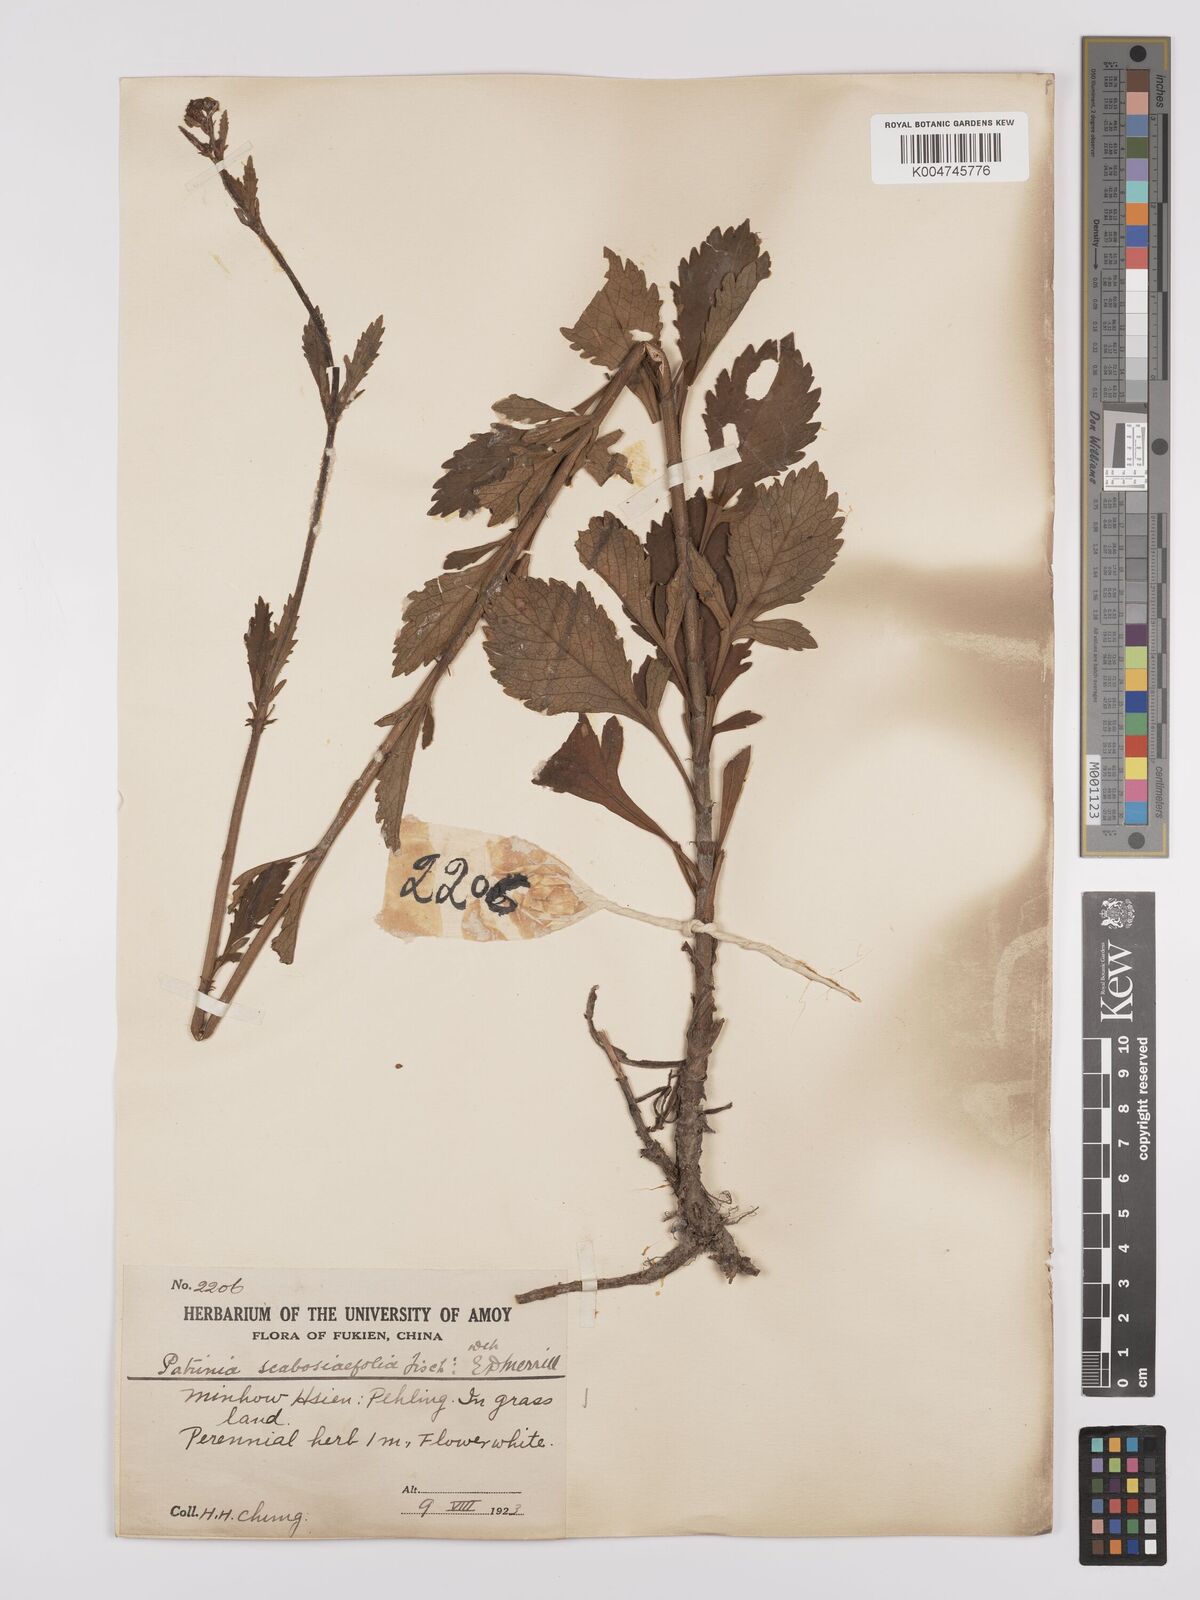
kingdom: Plantae
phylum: Tracheophyta
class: Magnoliopsida
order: Dipsacales
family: Caprifoliaceae
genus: Patrinia
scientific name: Patrinia
